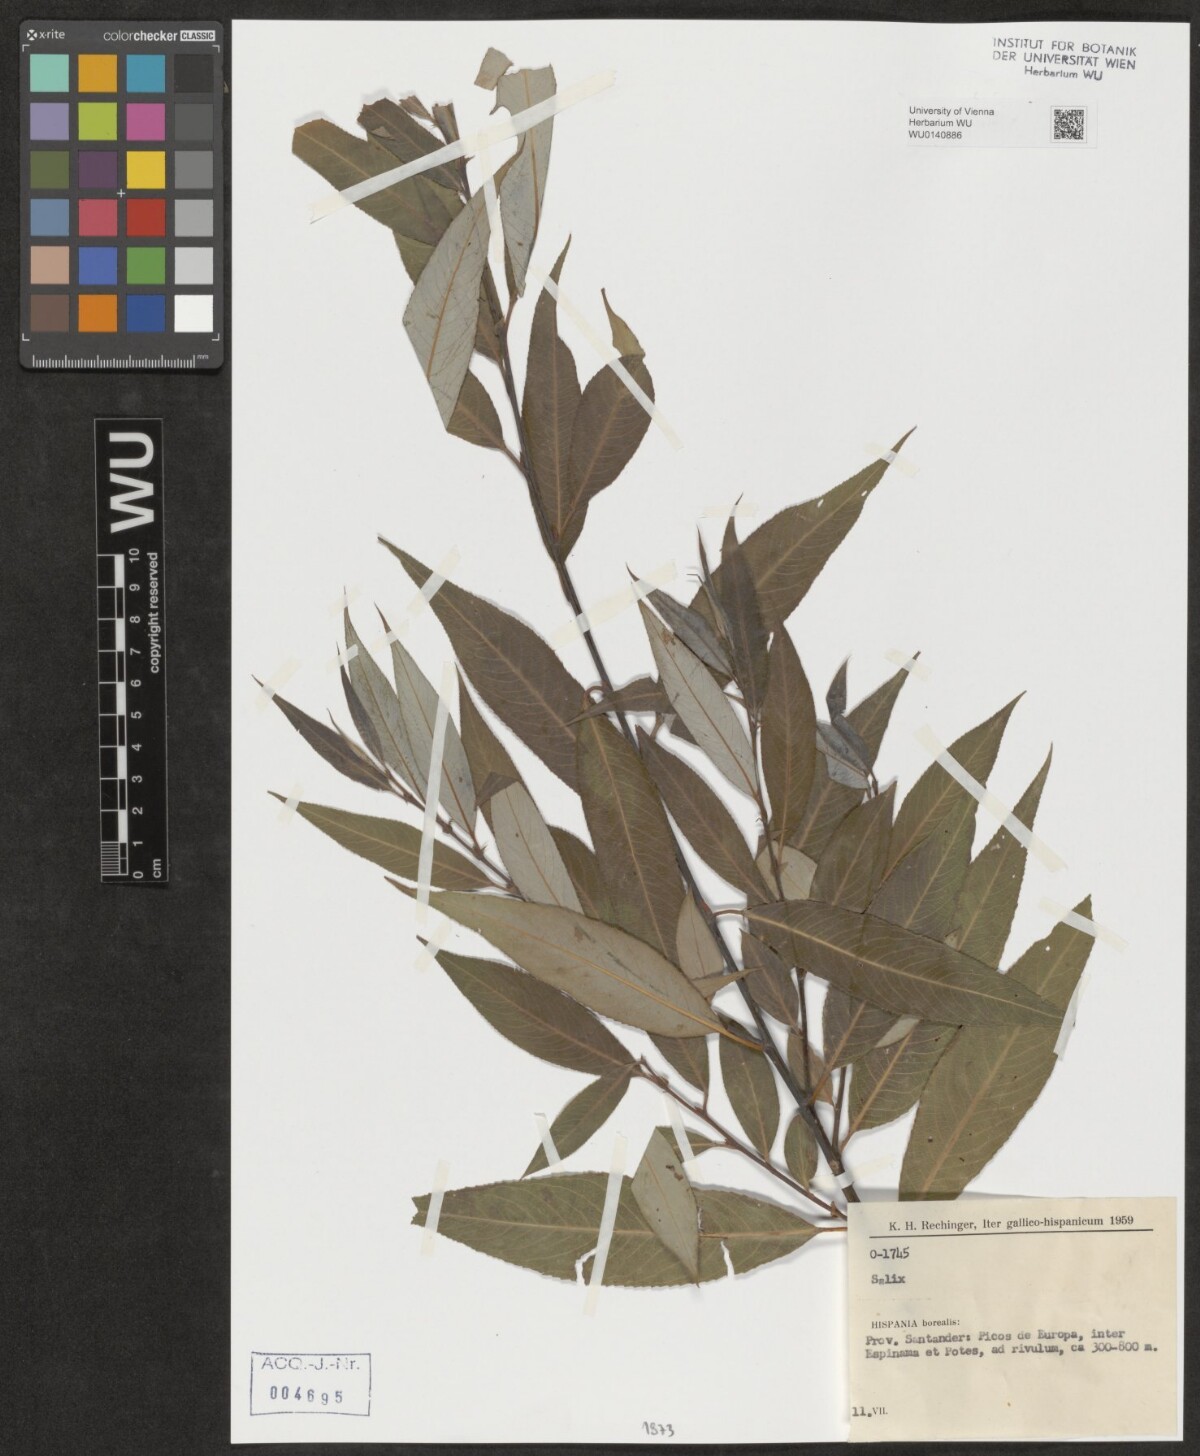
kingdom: Plantae
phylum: Tracheophyta
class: Magnoliopsida
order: Malpighiales
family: Salicaceae
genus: Salix
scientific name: Salix
